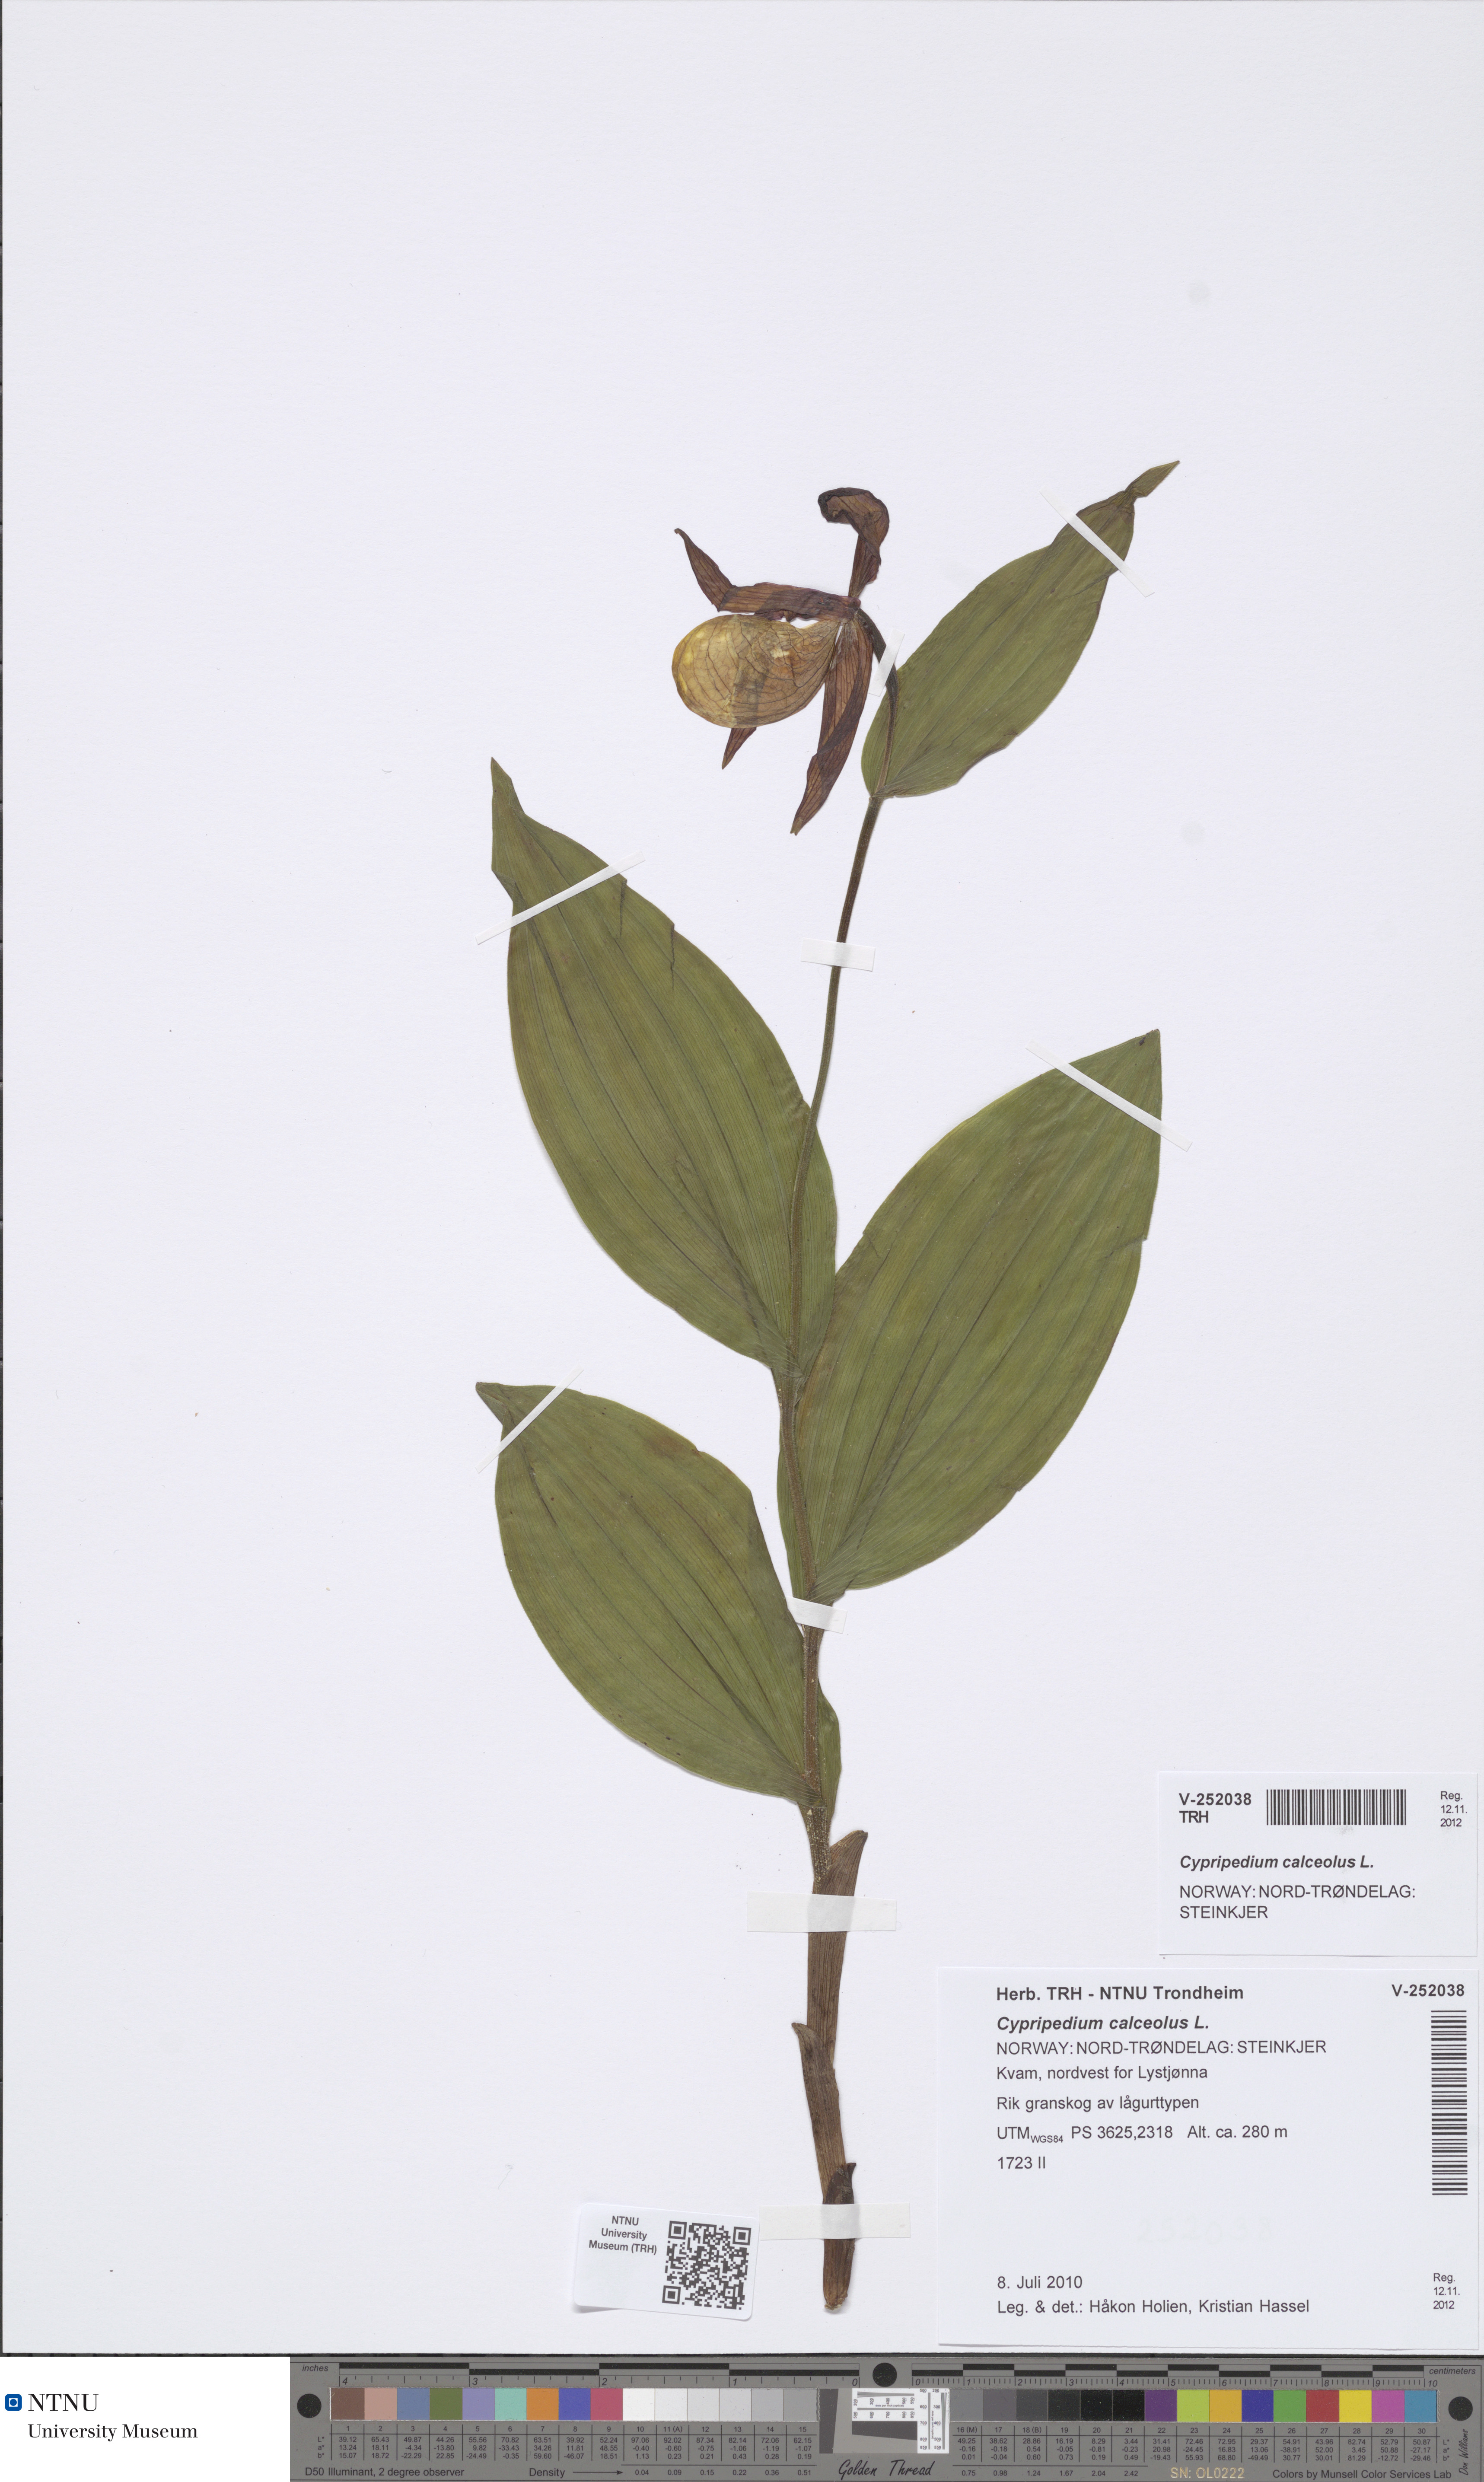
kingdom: Plantae
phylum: Tracheophyta
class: Liliopsida
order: Asparagales
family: Orchidaceae
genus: Cypripedium
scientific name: Cypripedium calceolus
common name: Lady's-slipper
